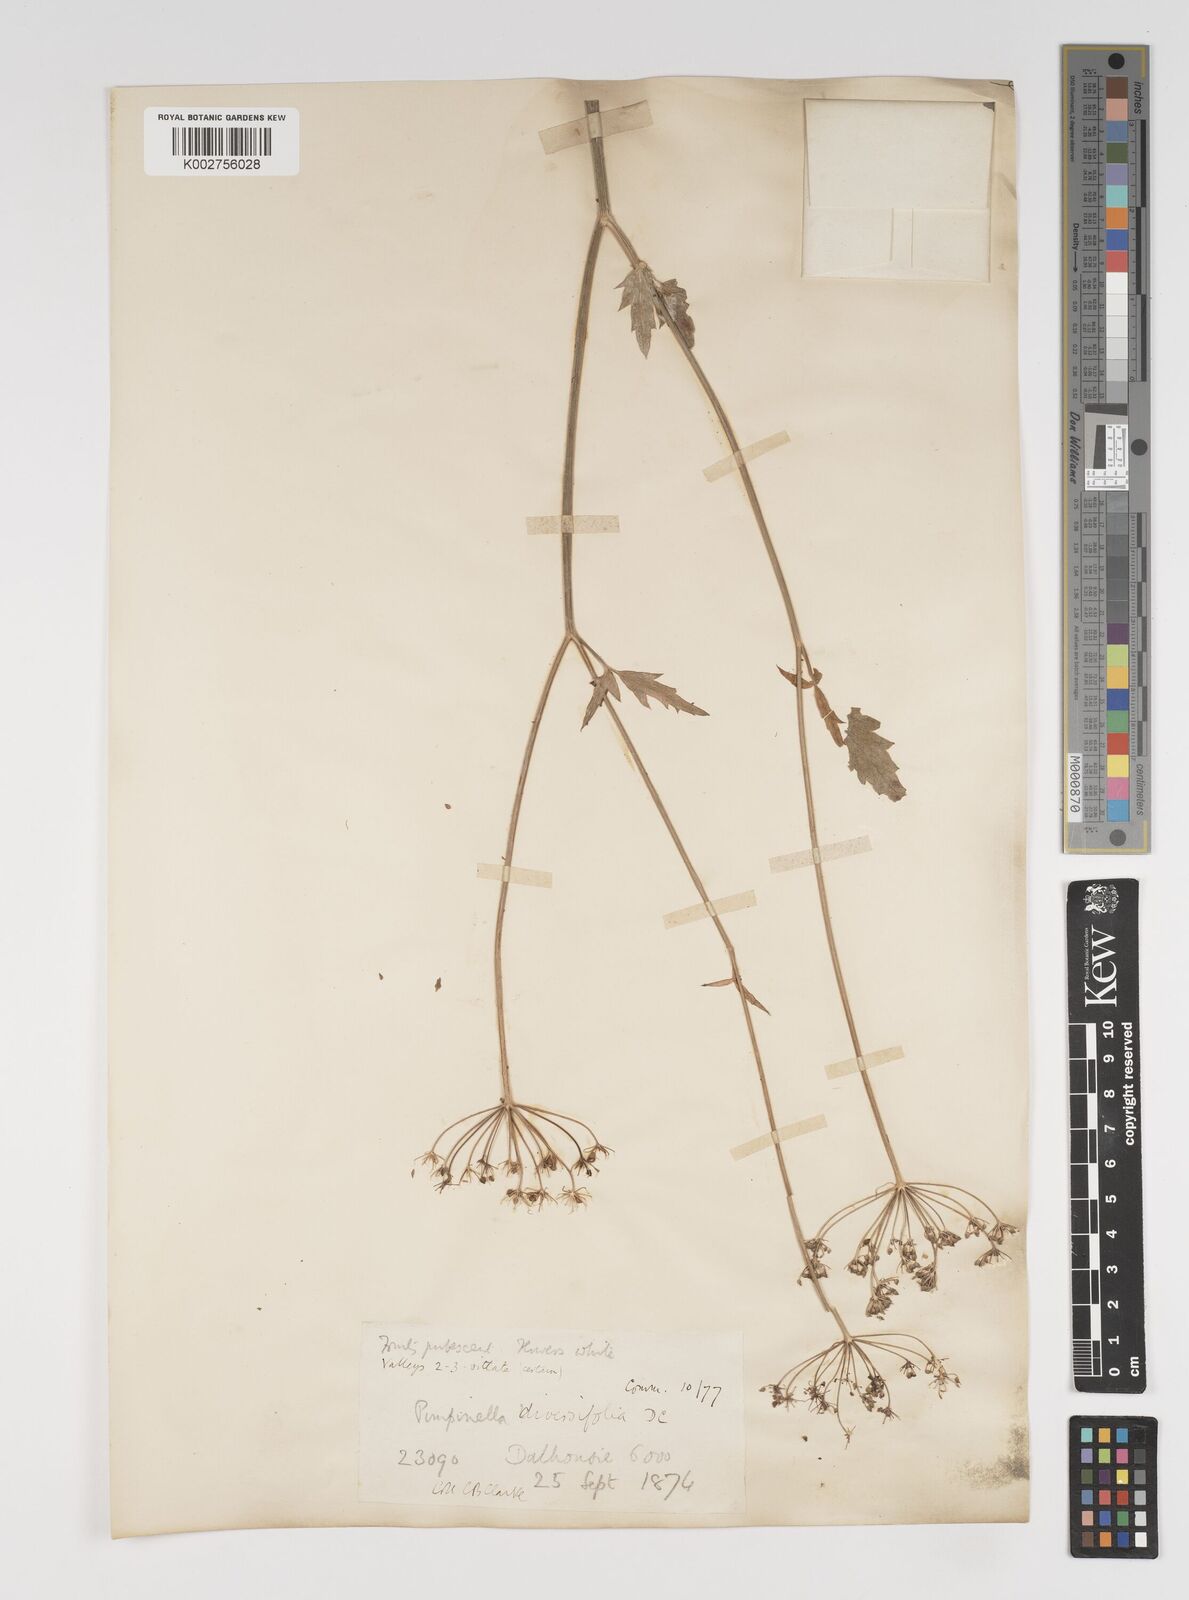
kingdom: Plantae
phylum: Tracheophyta
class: Magnoliopsida
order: Apiales
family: Apiaceae
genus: Pimpinella
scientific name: Pimpinella diversifolia
